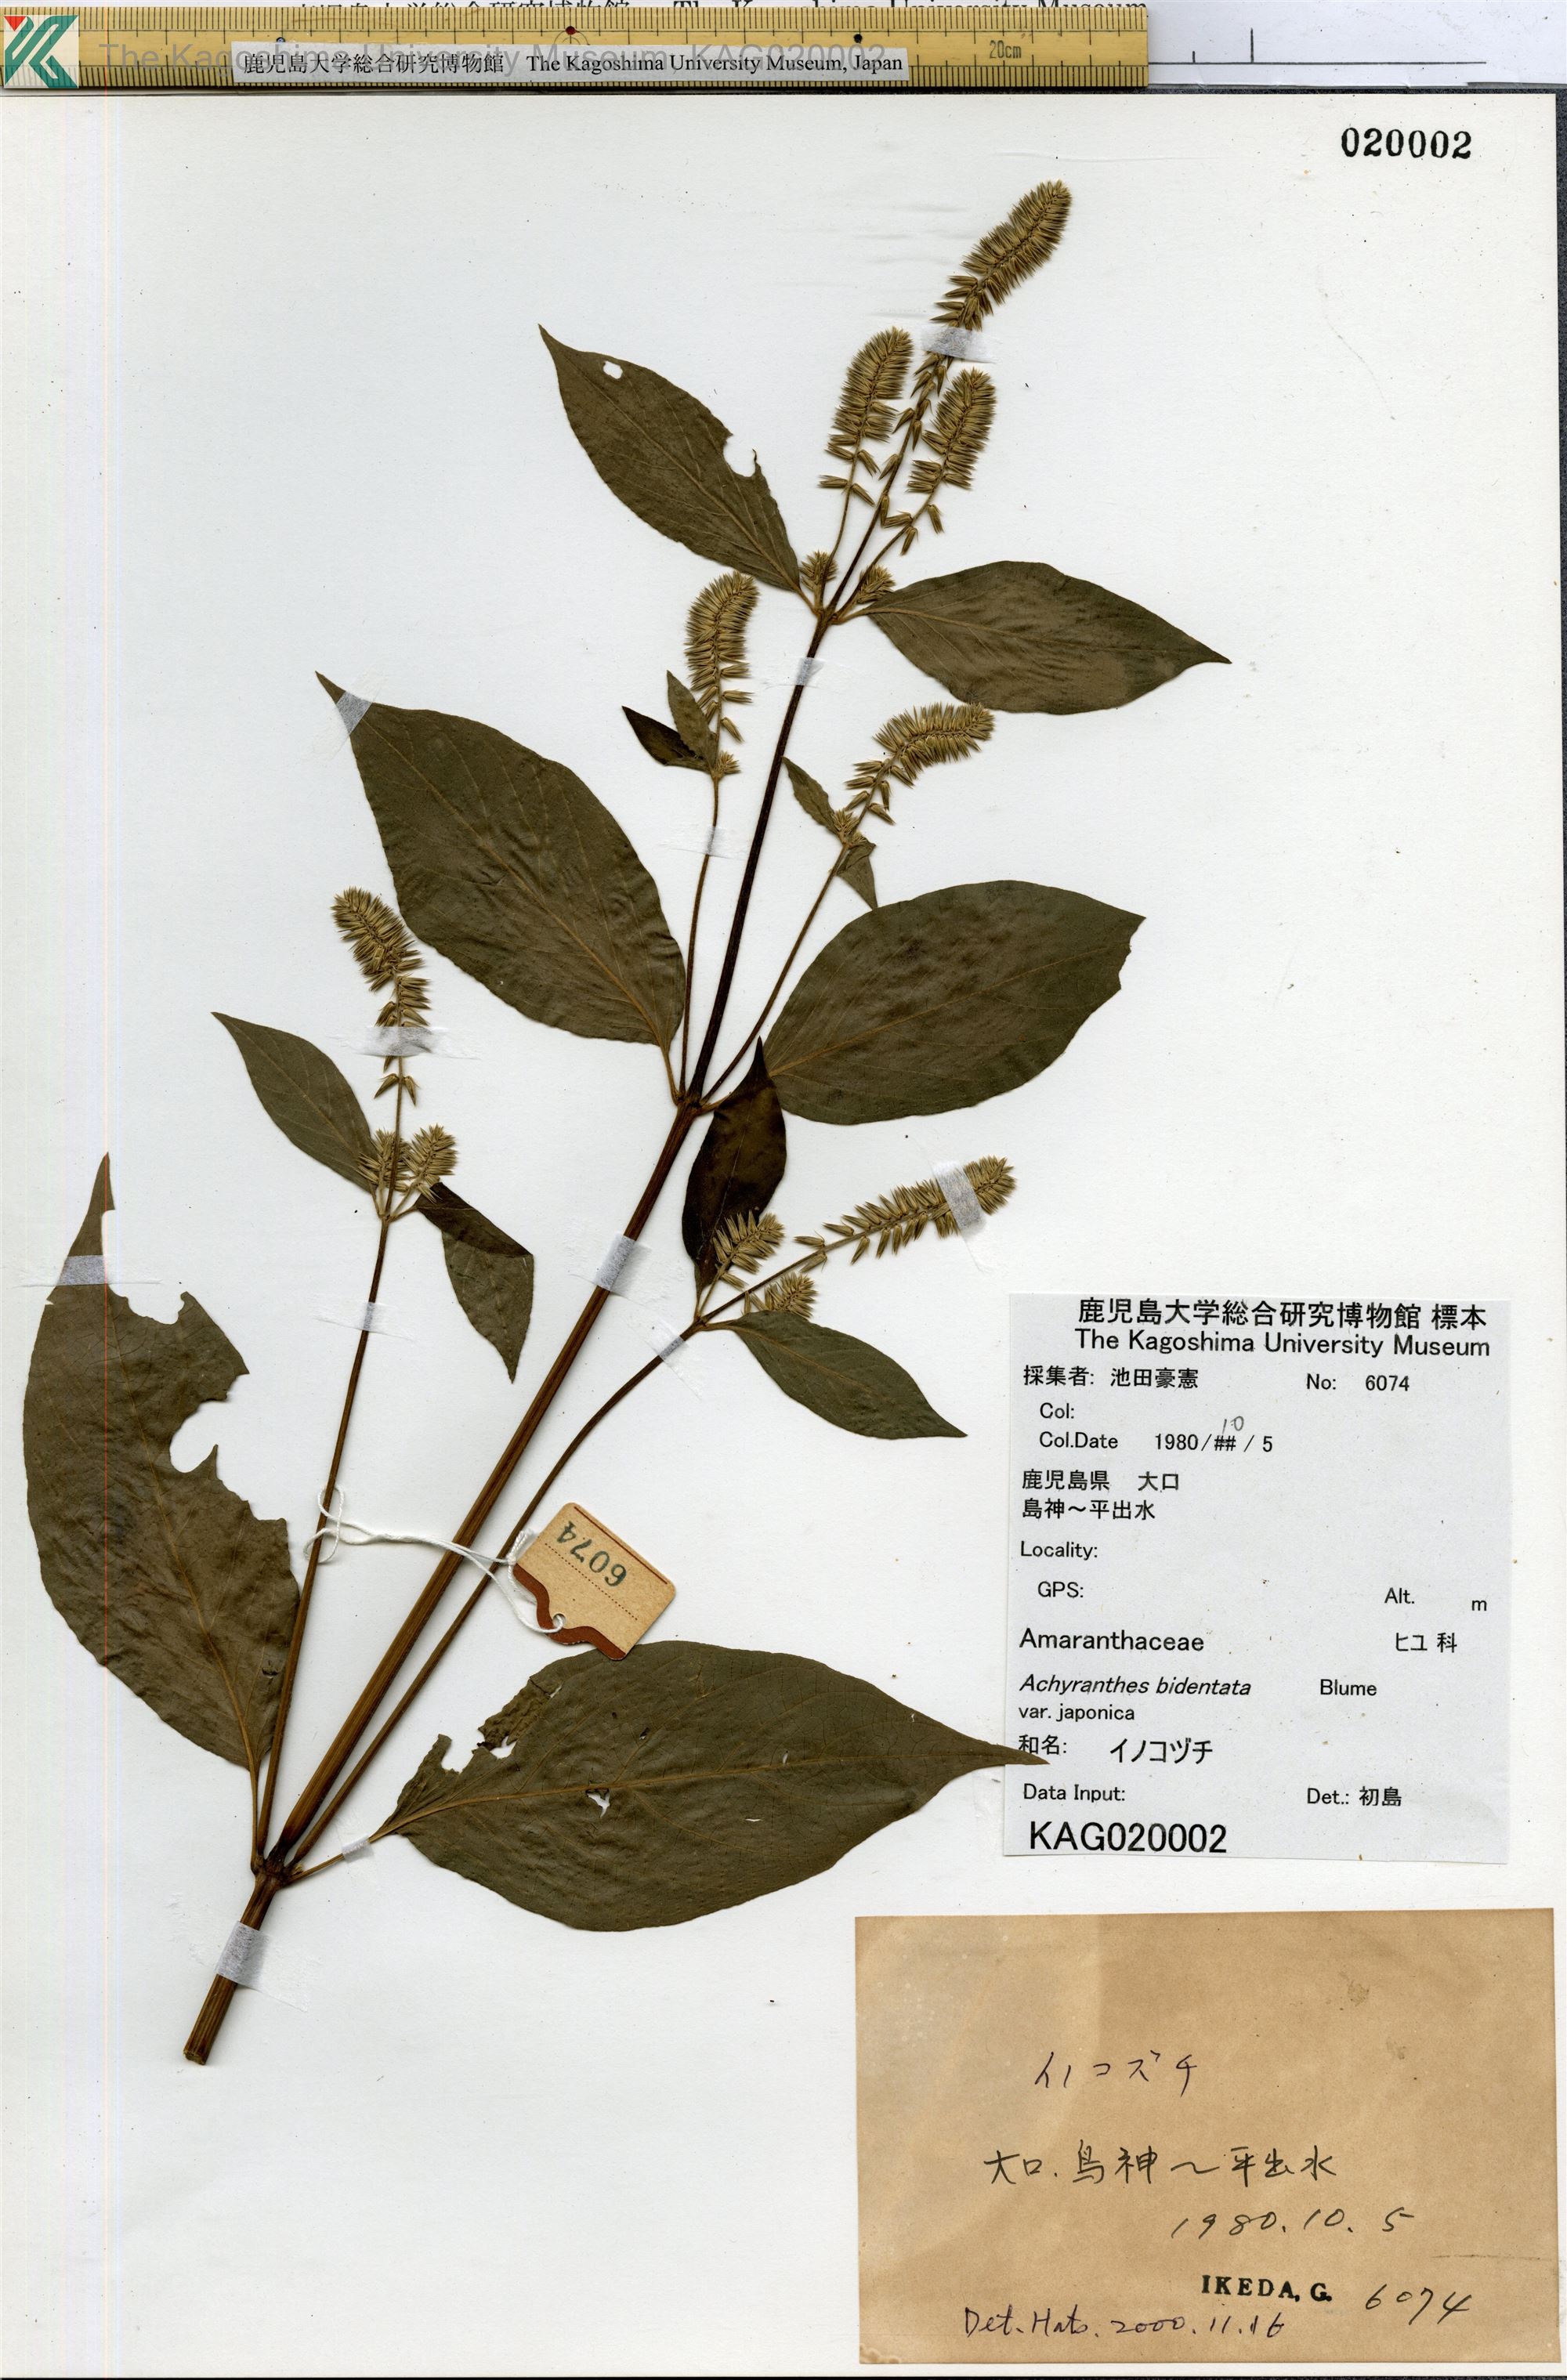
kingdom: Plantae
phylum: Tracheophyta
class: Magnoliopsida
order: Caryophyllales
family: Amaranthaceae
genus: Achyranthes
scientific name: Achyranthes bidentata
